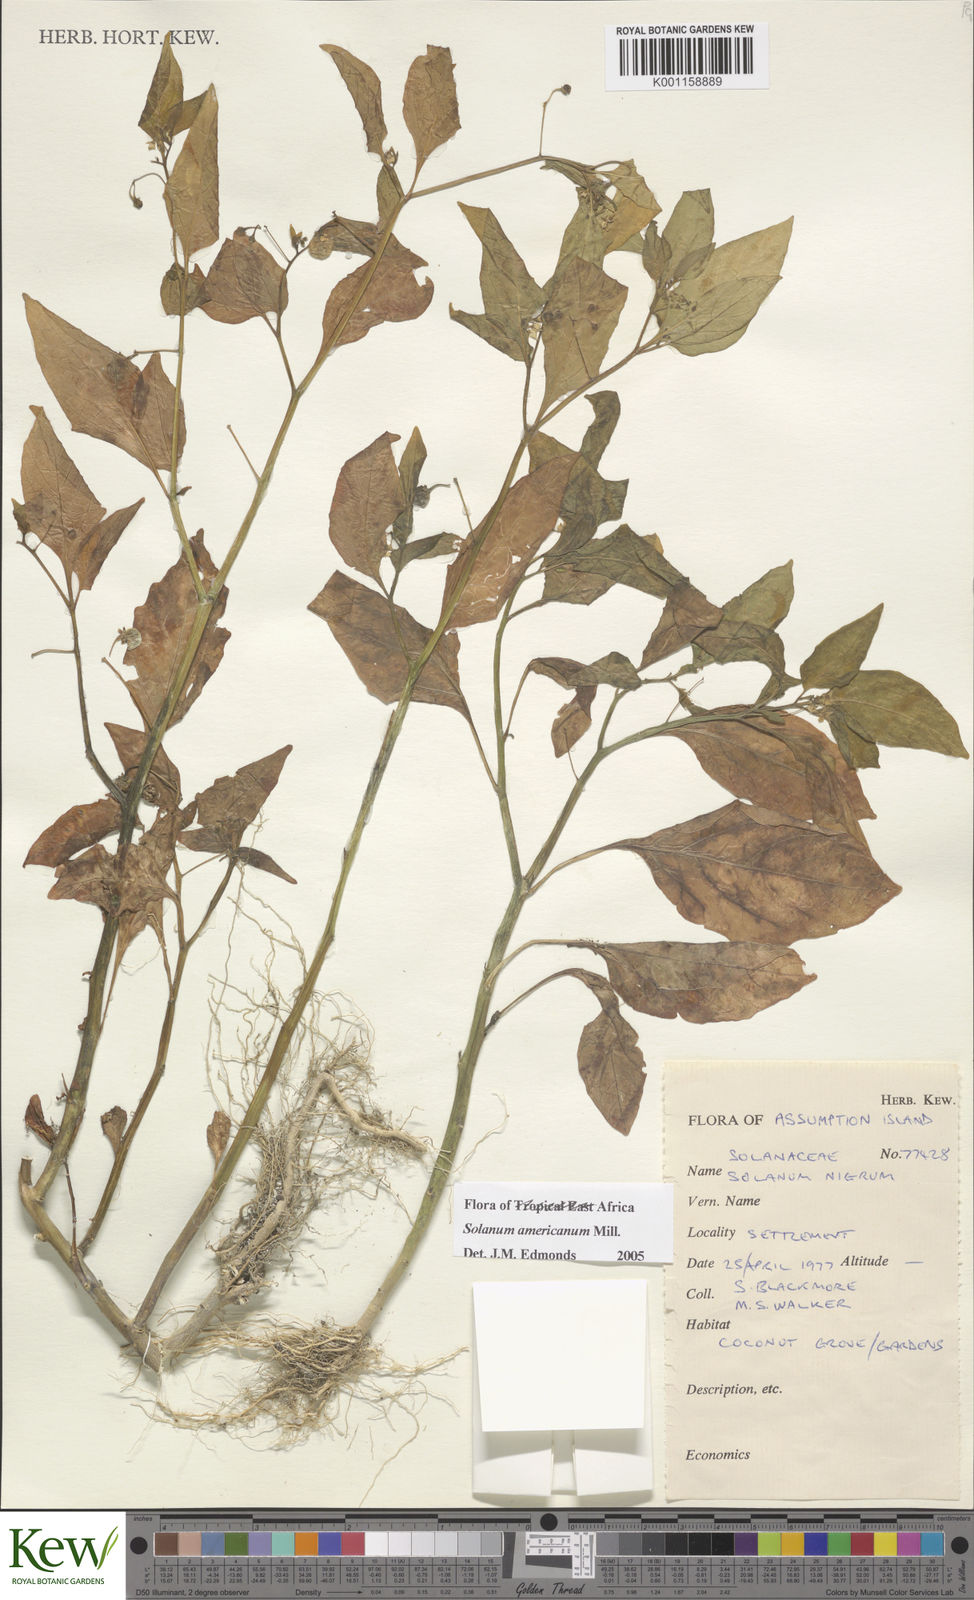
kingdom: Plantae
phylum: Tracheophyta
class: Magnoliopsida
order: Solanales
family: Solanaceae
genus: Solanum
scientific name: Solanum americanum
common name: American black nightshade
